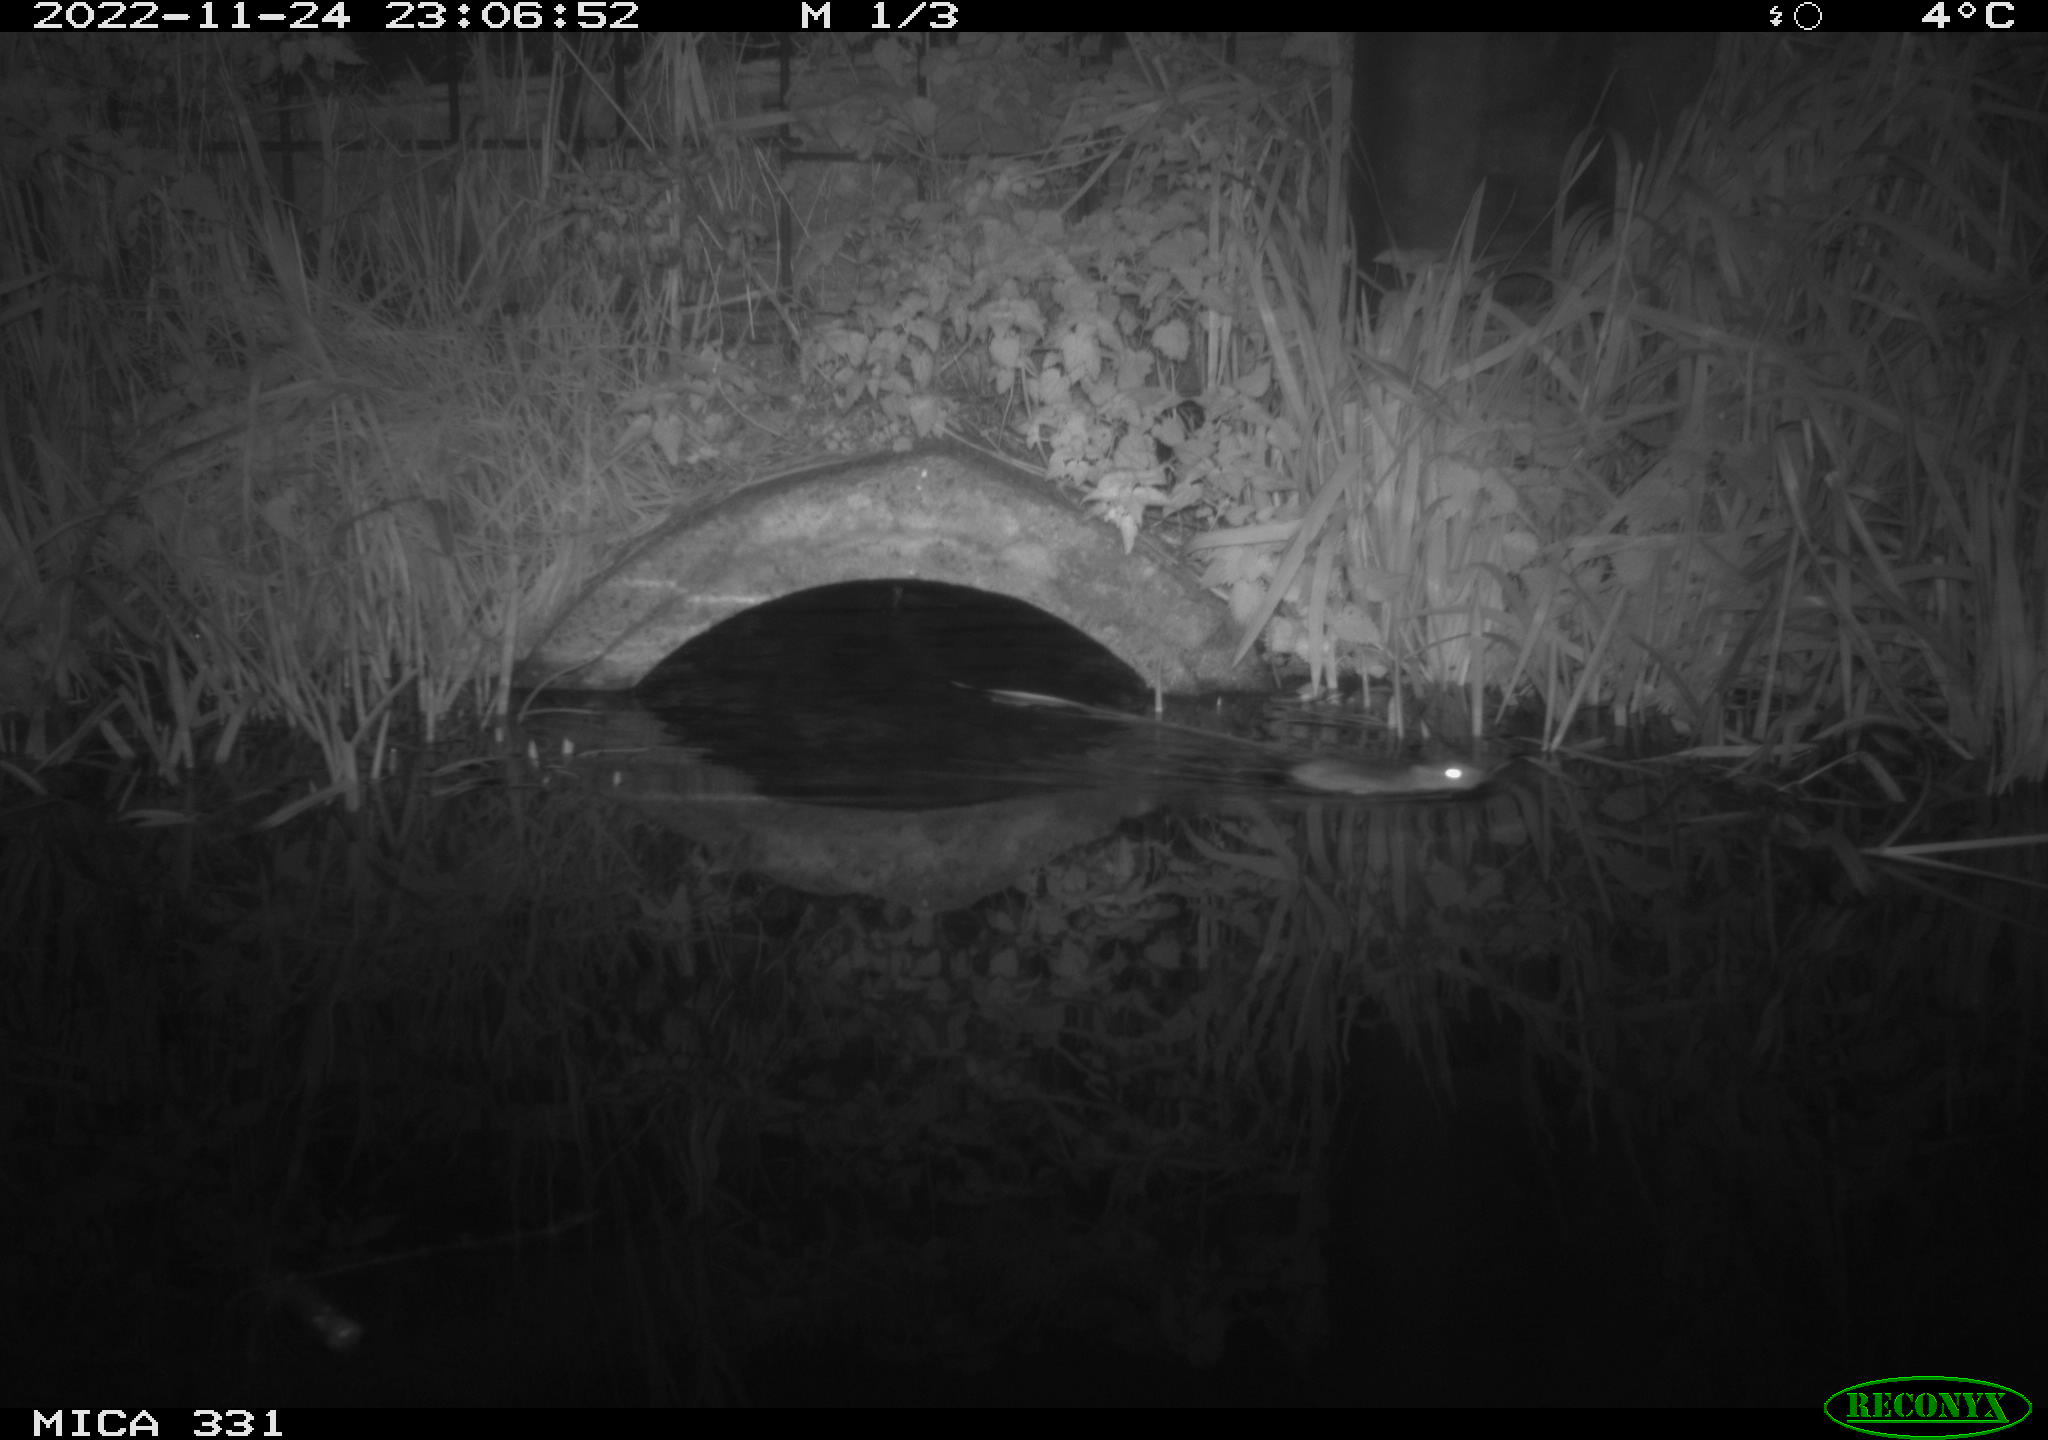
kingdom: Animalia
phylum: Chordata
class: Mammalia
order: Rodentia
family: Muridae
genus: Rattus
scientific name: Rattus norvegicus
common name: Brown rat
